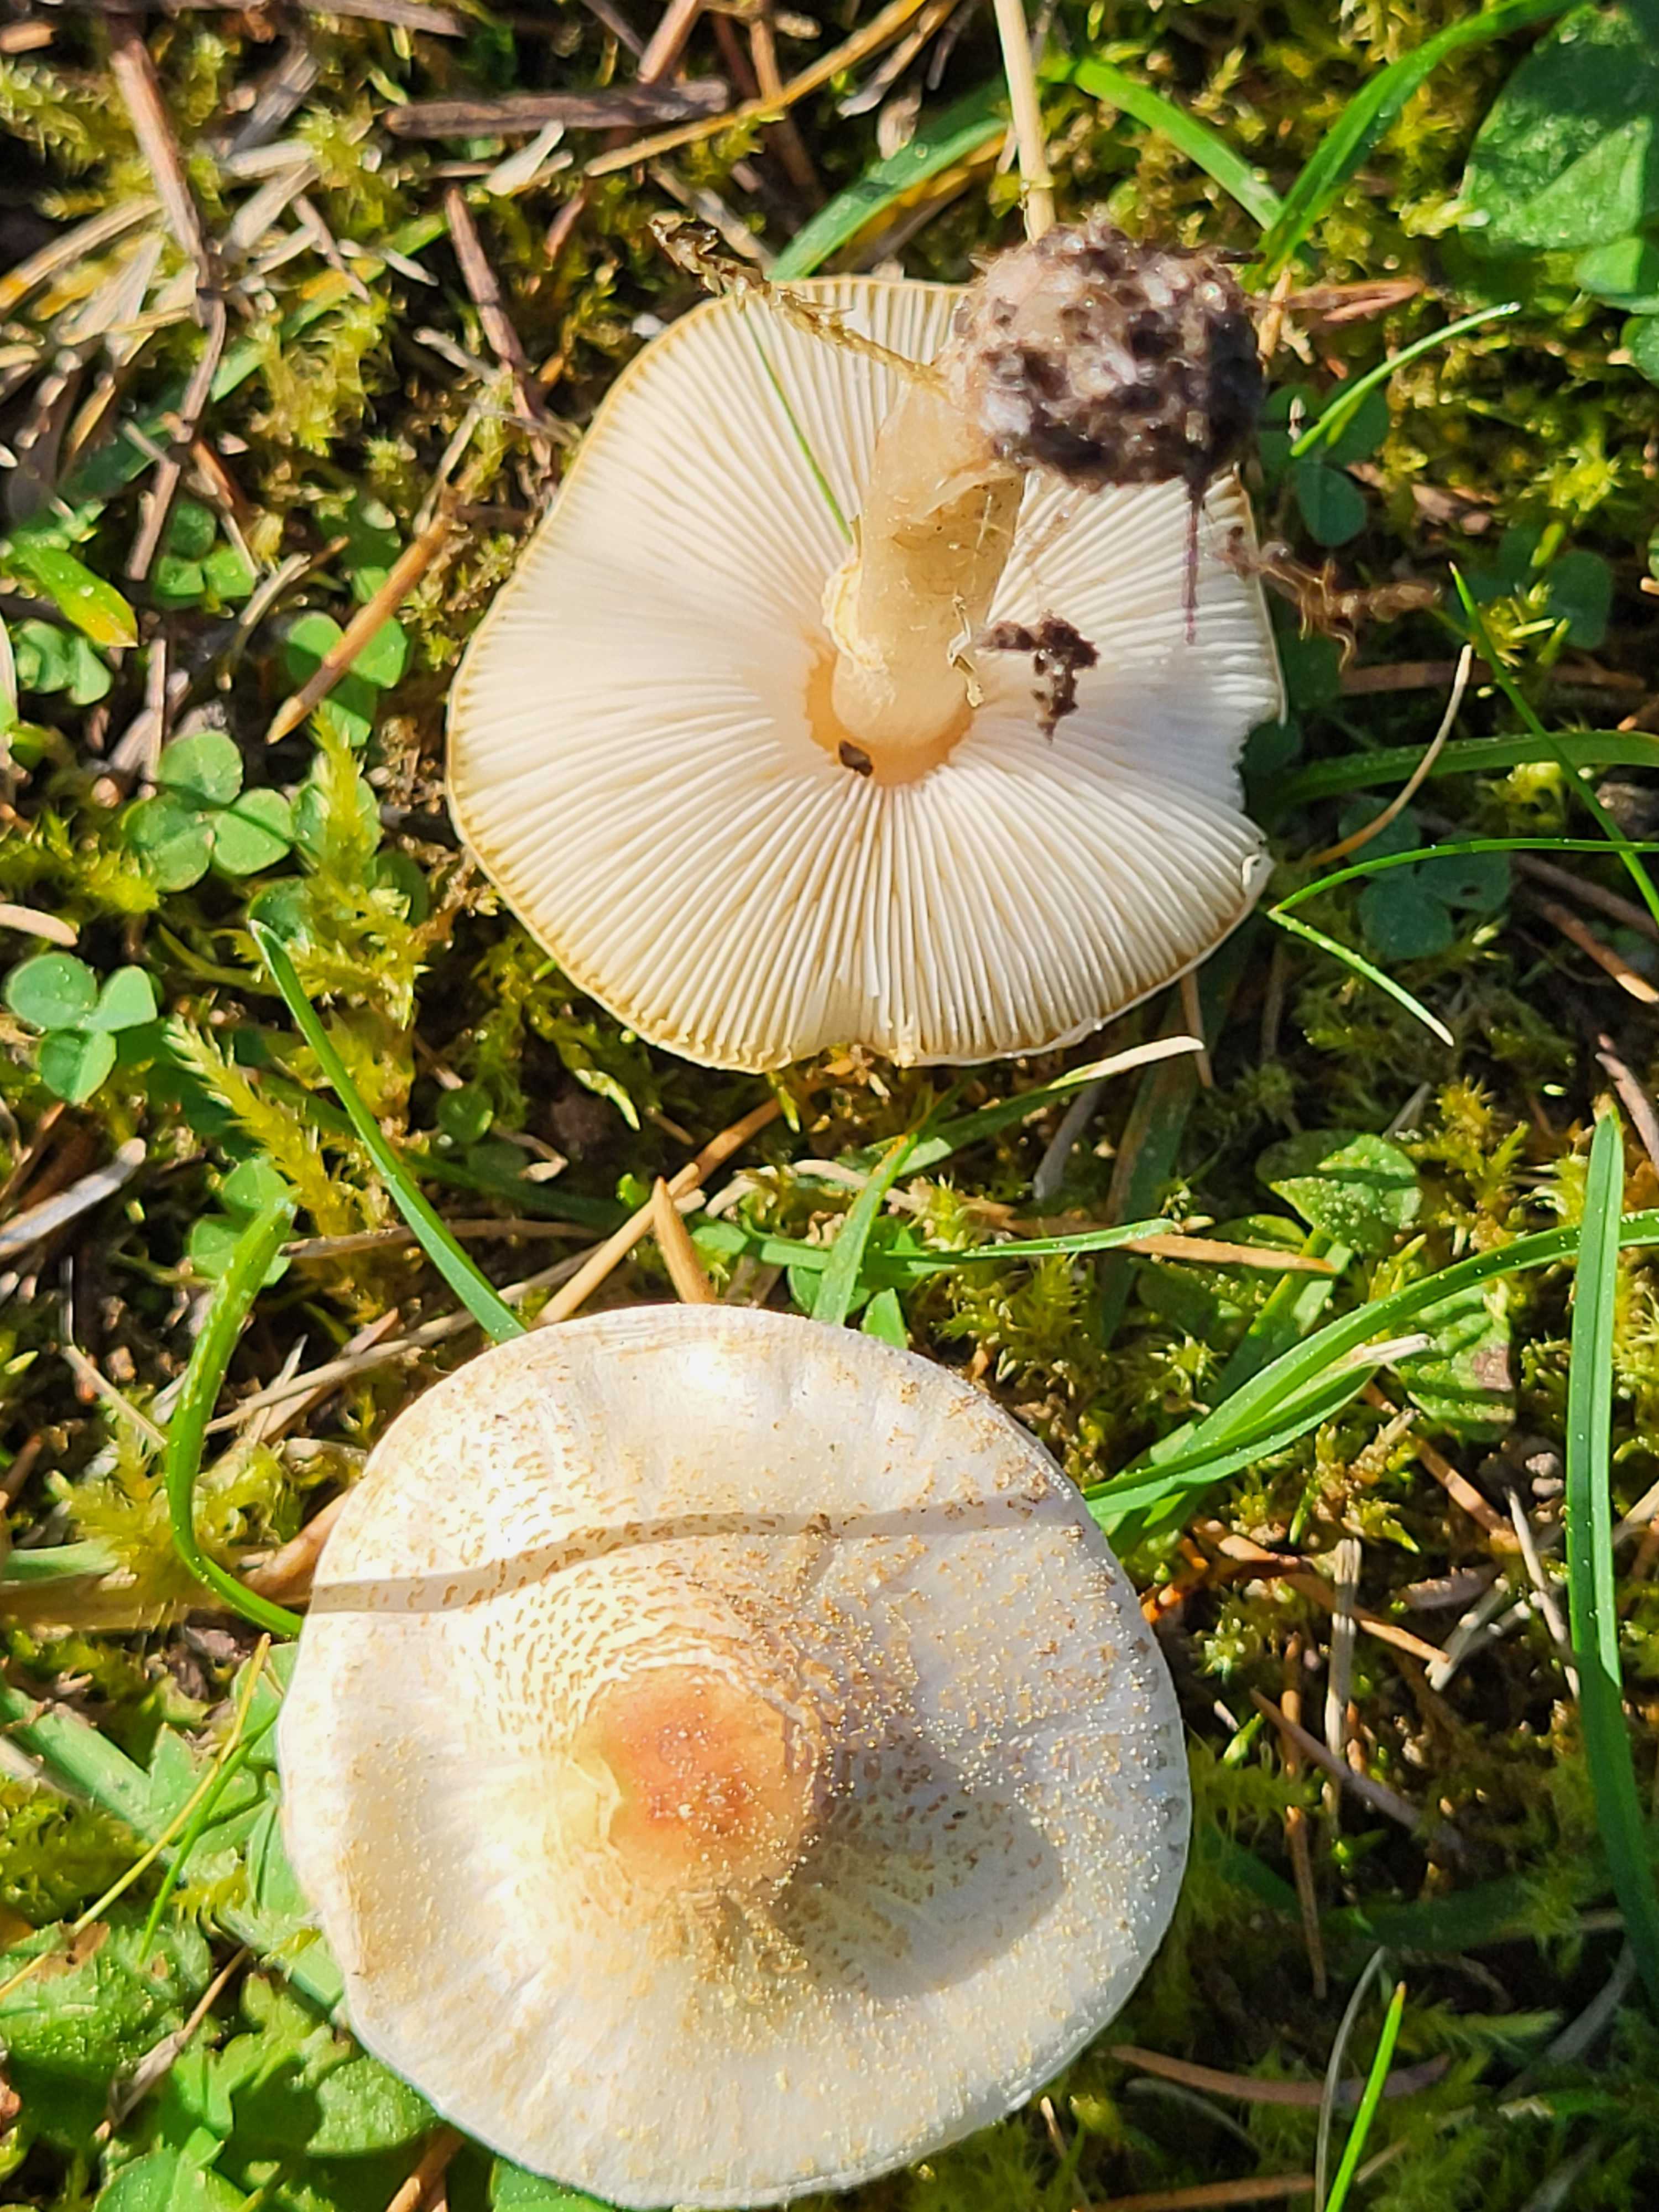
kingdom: Fungi
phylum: Basidiomycota
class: Agaricomycetes
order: Agaricales
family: Agaricaceae
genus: Lepiota
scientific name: Lepiota cristata
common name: stinkende parasolhat
